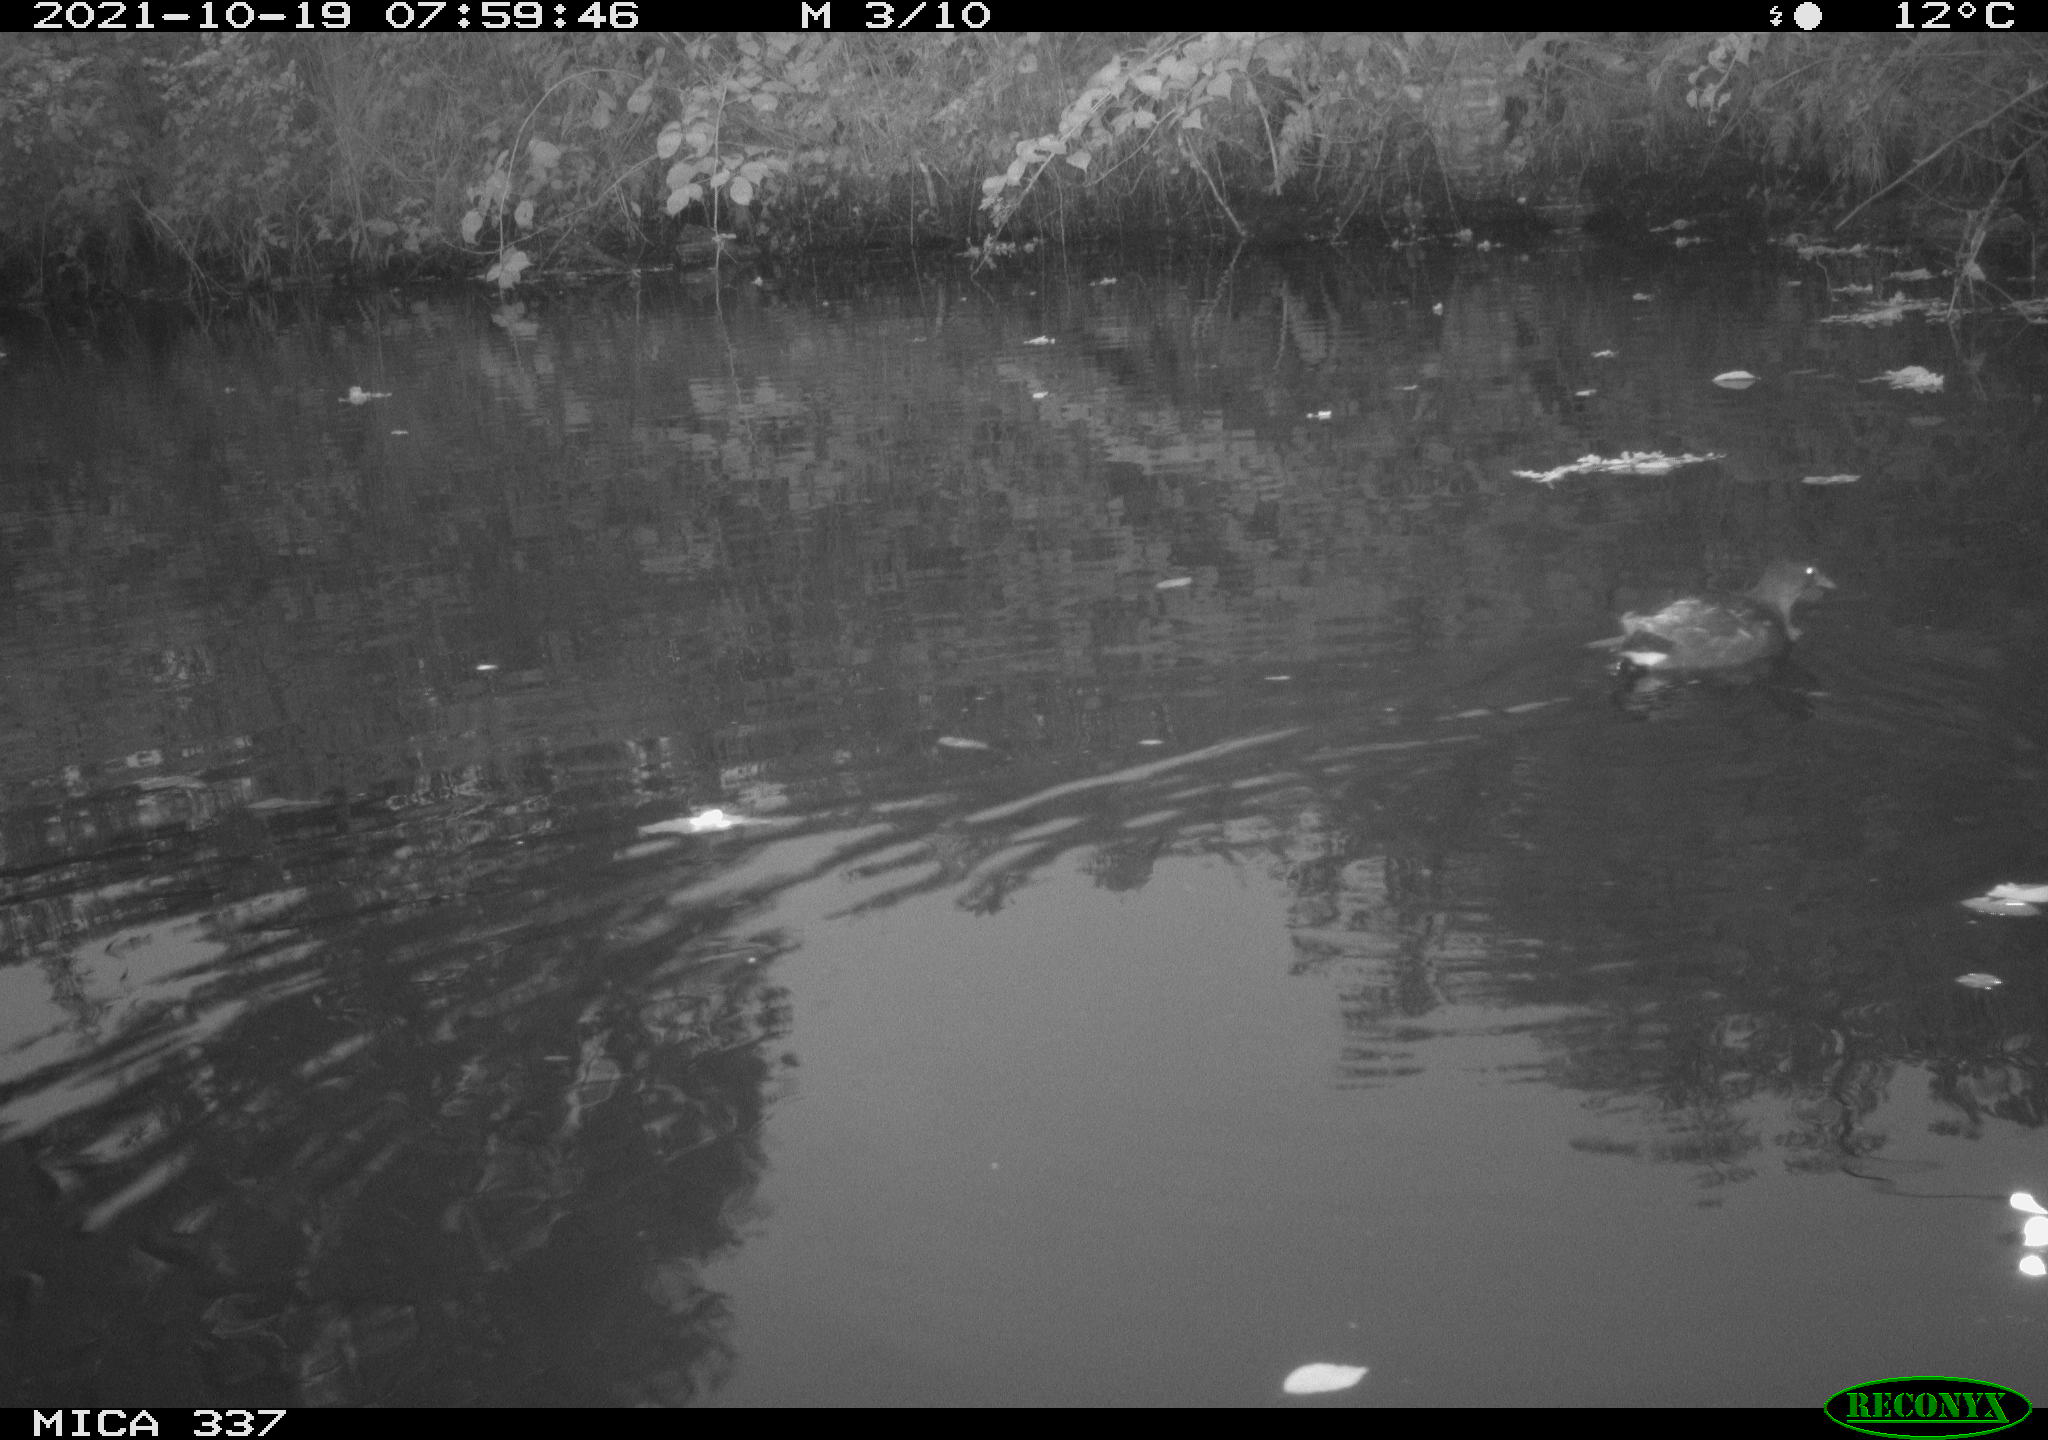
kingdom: Animalia
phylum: Chordata
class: Aves
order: Gruiformes
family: Rallidae
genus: Gallinula
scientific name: Gallinula chloropus
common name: Common moorhen
